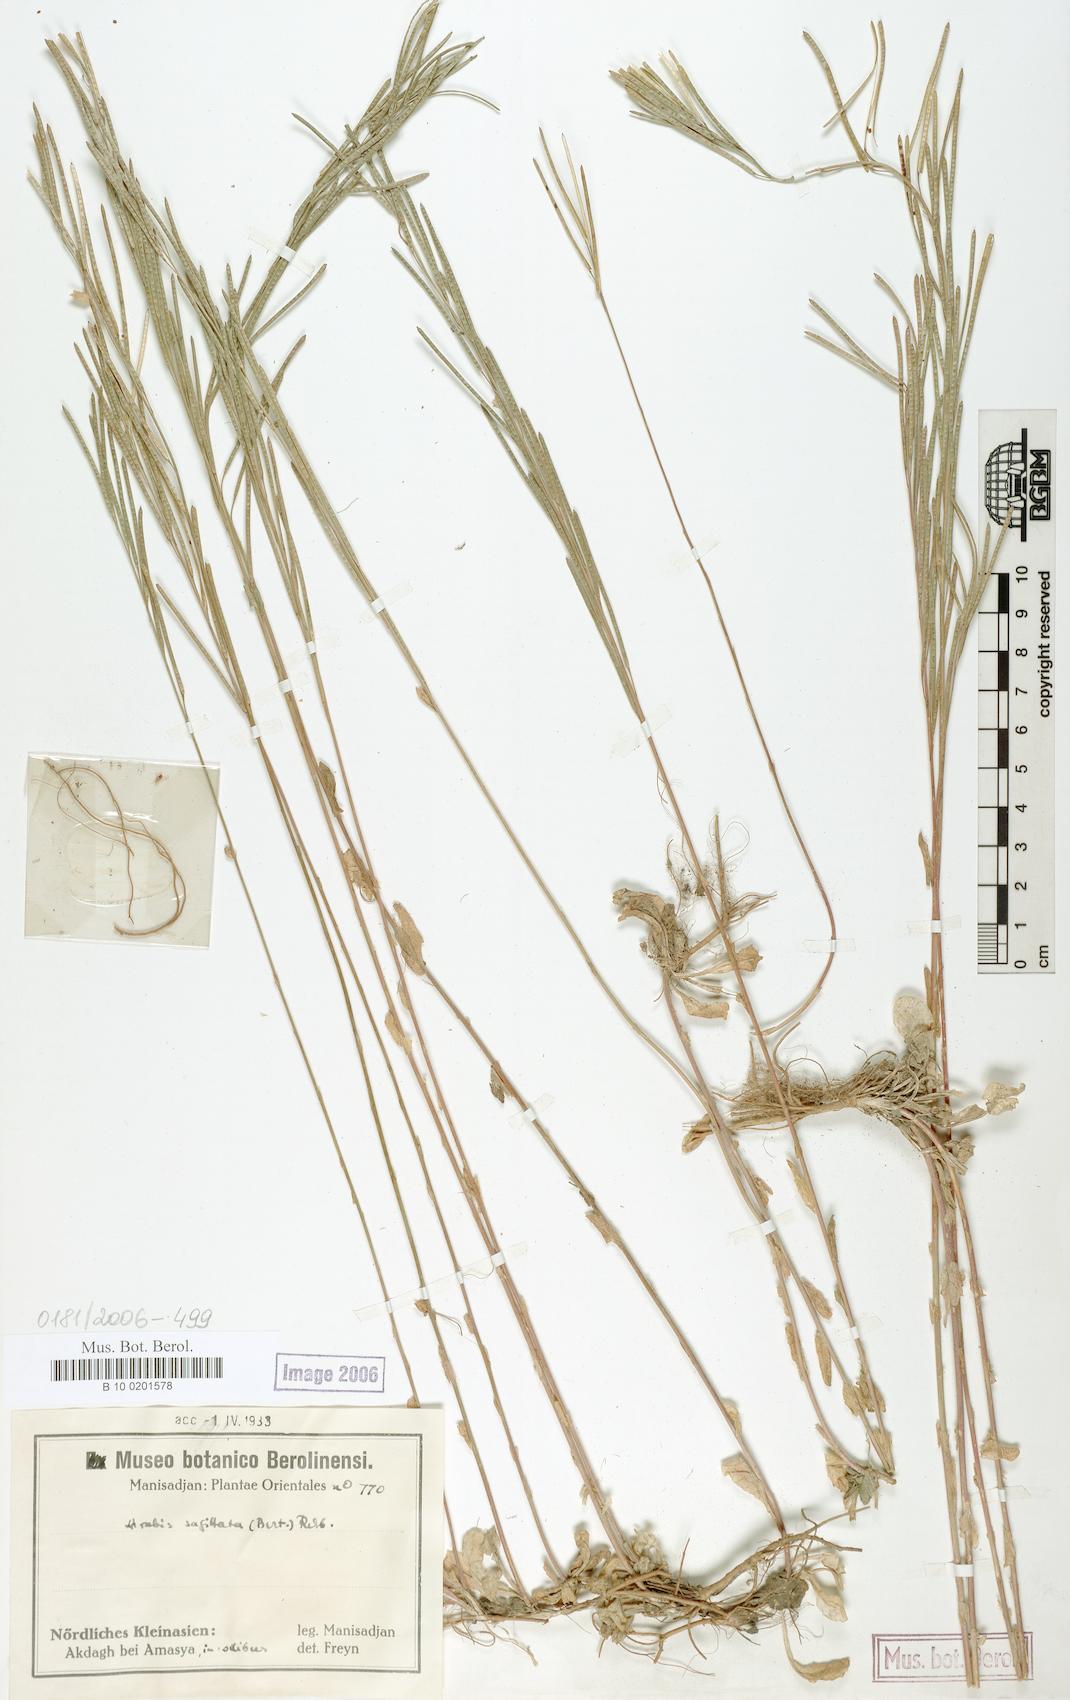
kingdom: Plantae
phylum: Tracheophyta
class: Magnoliopsida
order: Brassicales
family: Brassicaceae
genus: Arabis
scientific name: Arabis sagittata
